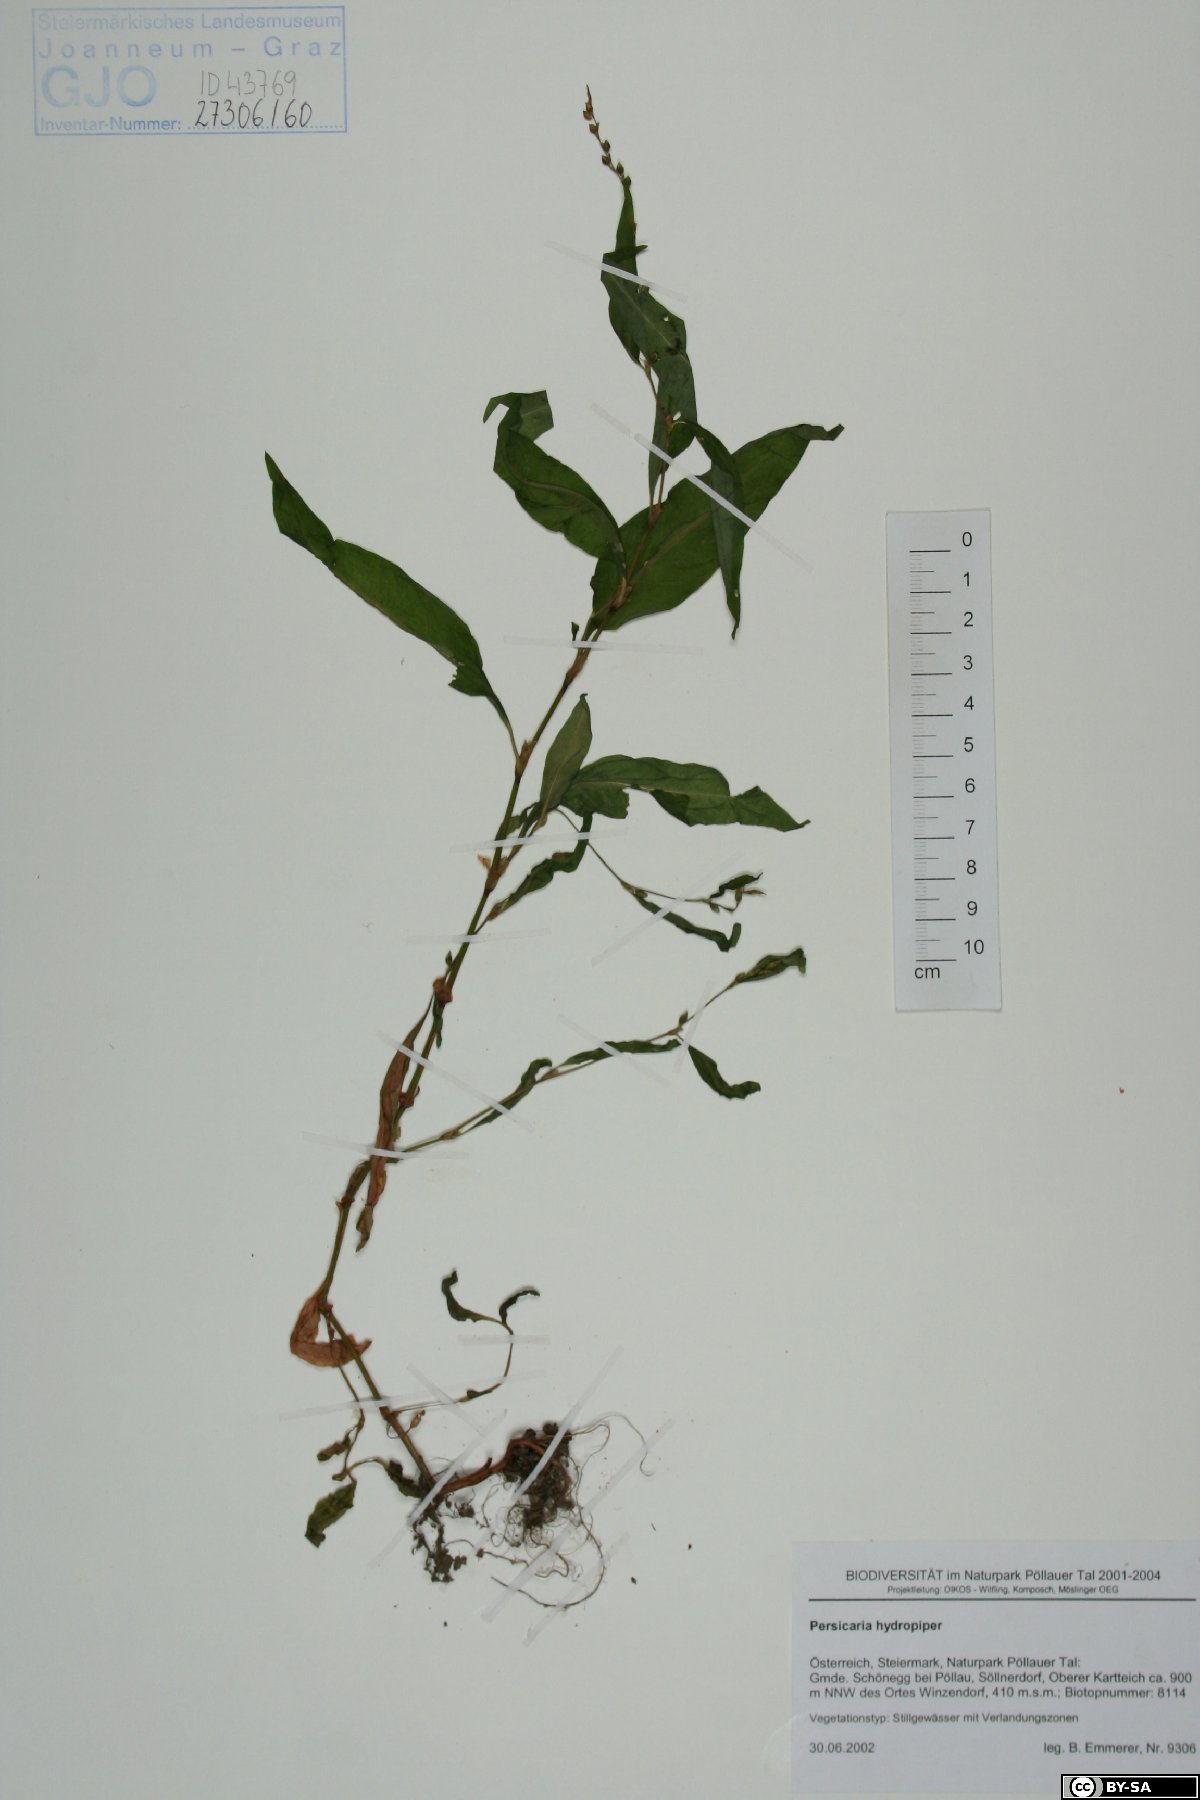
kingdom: Plantae
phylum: Tracheophyta
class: Magnoliopsida
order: Caryophyllales
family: Polygonaceae
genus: Persicaria
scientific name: Persicaria hydropiper
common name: Water-pepper
